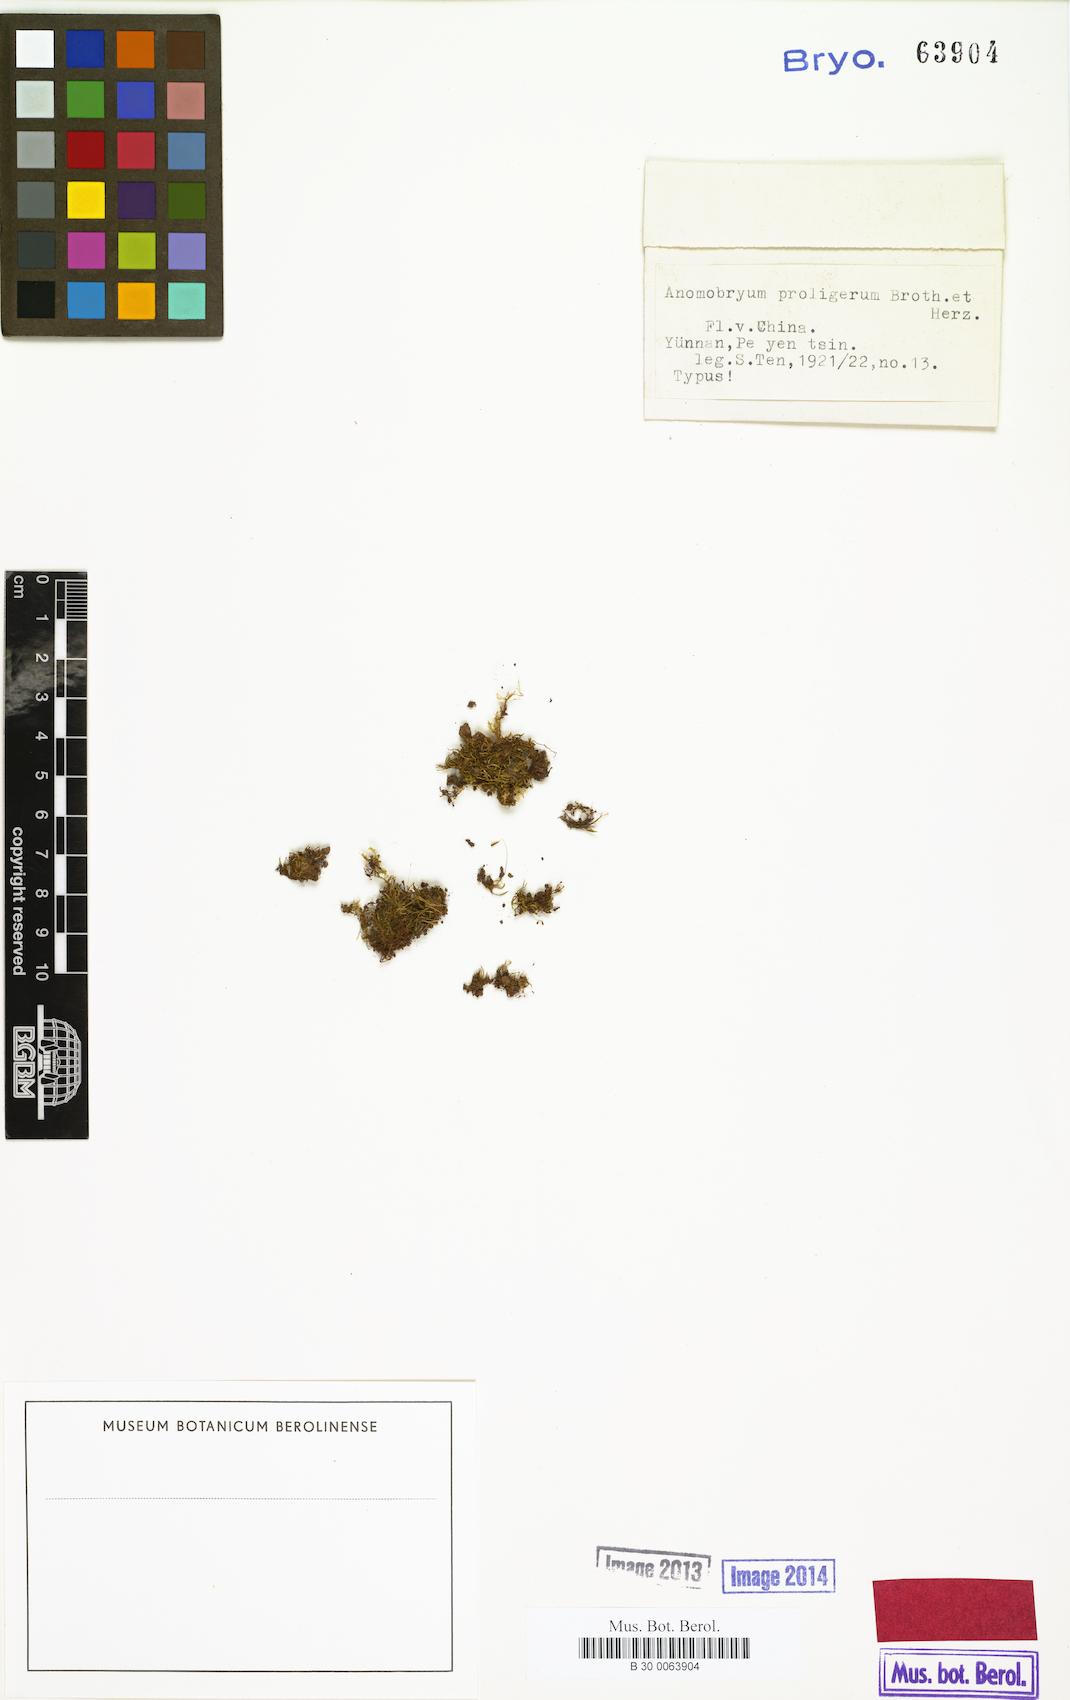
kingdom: Plantae
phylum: Bryophyta
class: Bryopsida
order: Bryales
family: Bryaceae
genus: Anomobryum
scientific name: Anomobryum nitidum
